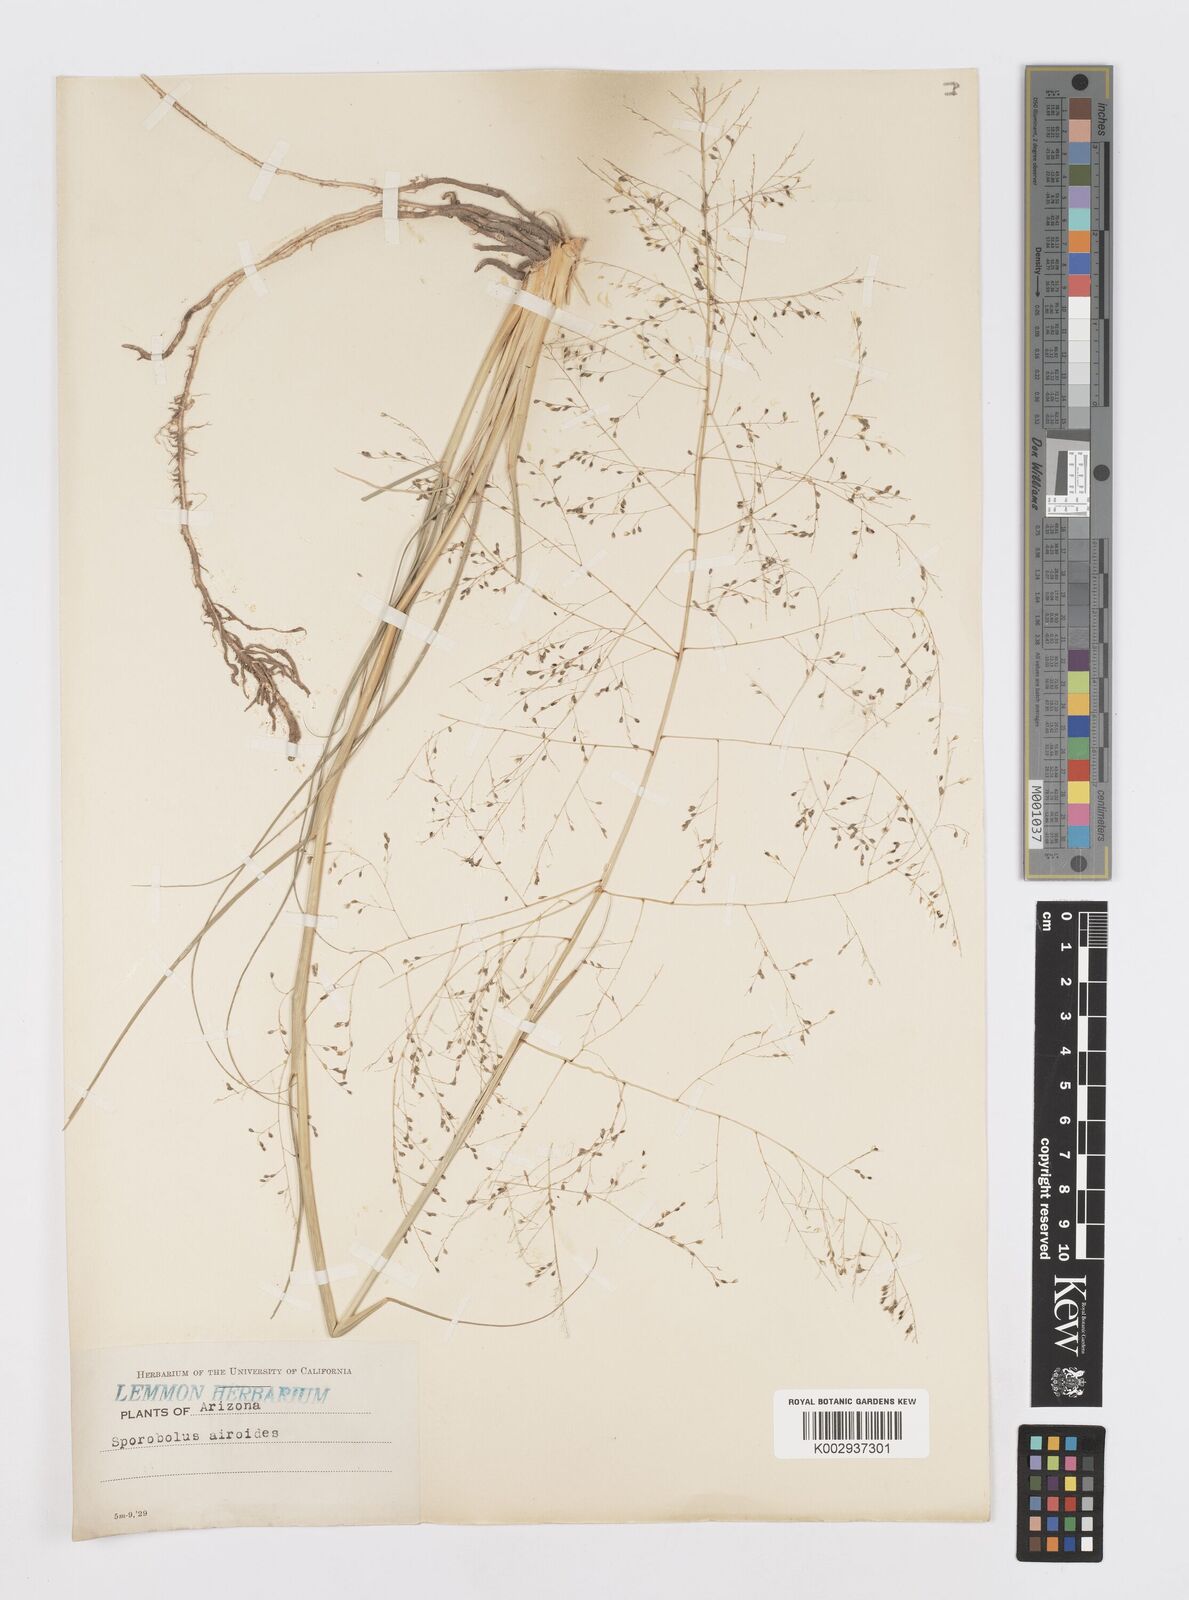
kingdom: Plantae
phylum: Tracheophyta
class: Liliopsida
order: Poales
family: Poaceae
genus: Sporobolus
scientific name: Sporobolus airoides
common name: Alkali sacaton
